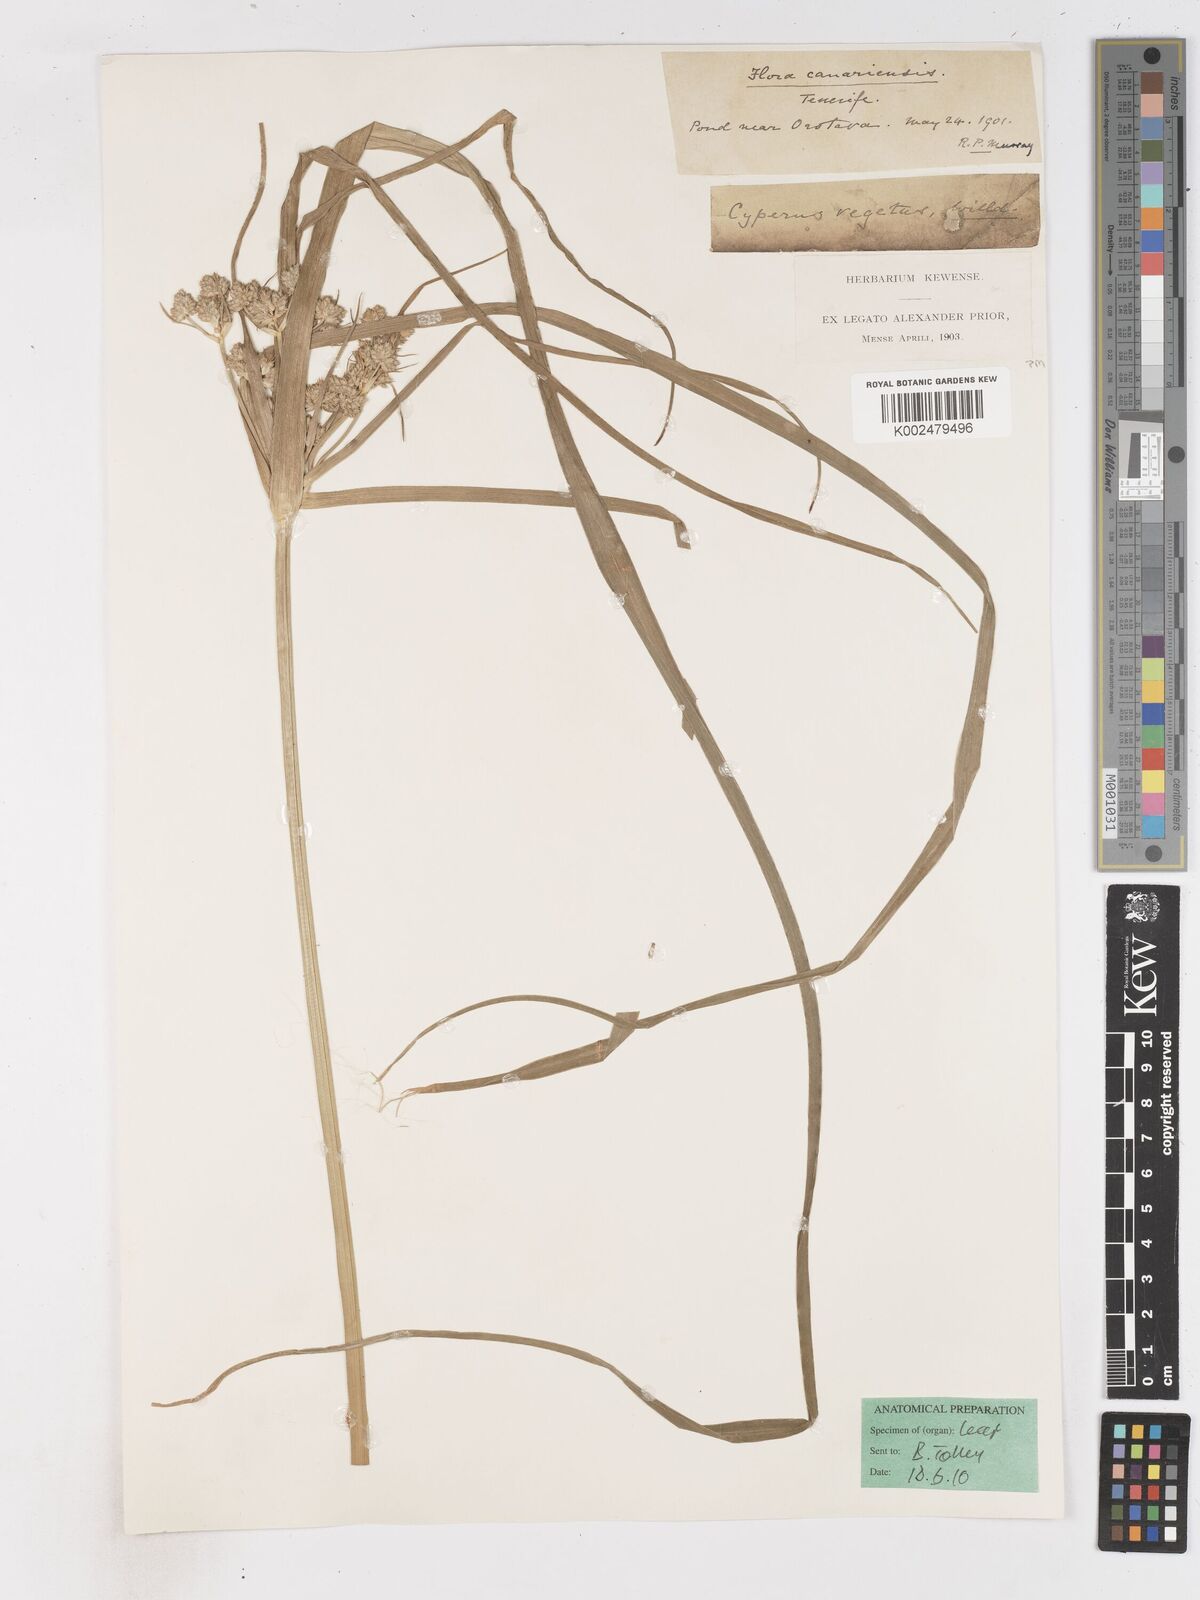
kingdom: Plantae
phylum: Tracheophyta
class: Liliopsida
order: Poales
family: Cyperaceae
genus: Cyperus
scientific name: Cyperus eragrostis
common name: Tall flatsedge
